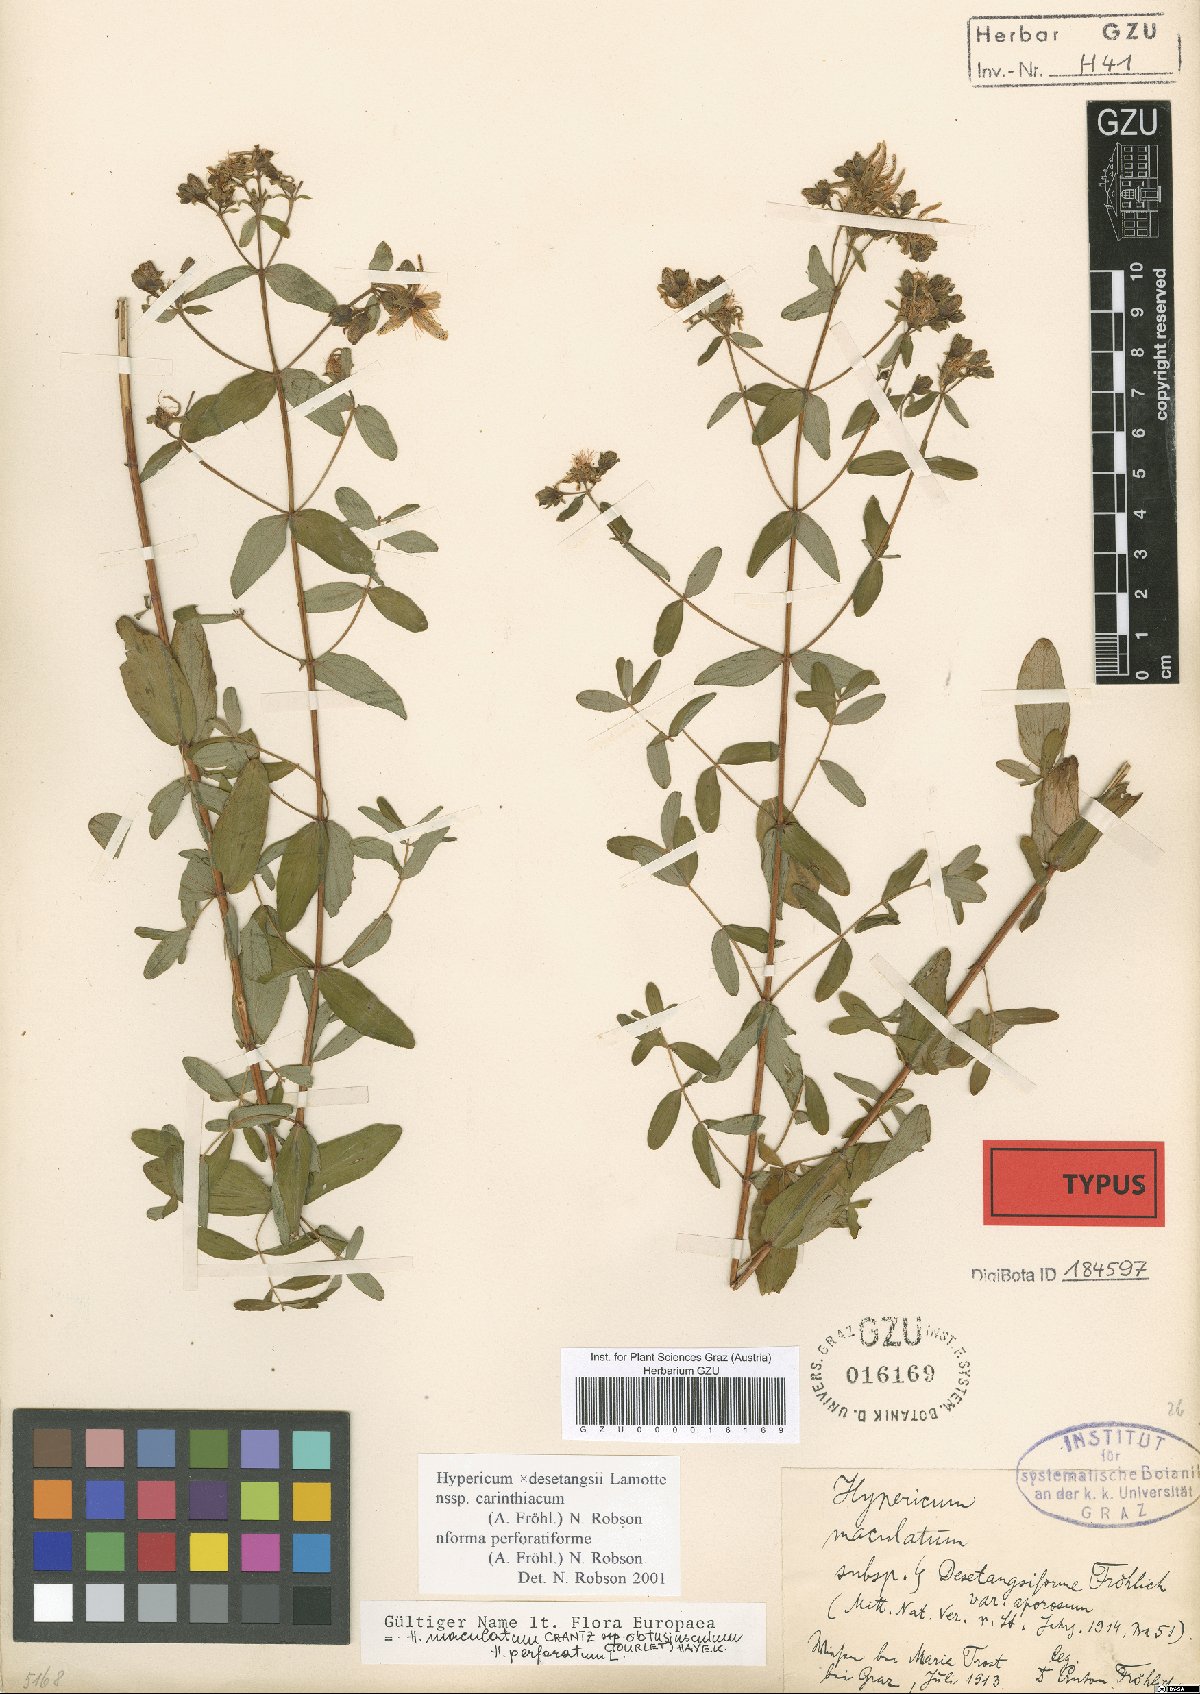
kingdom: Plantae
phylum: Tracheophyta
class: Magnoliopsida
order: Malpighiales
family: Hypericaceae
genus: Hypericum
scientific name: Hypericum maculatum
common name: Imperforate st. john's-wort
